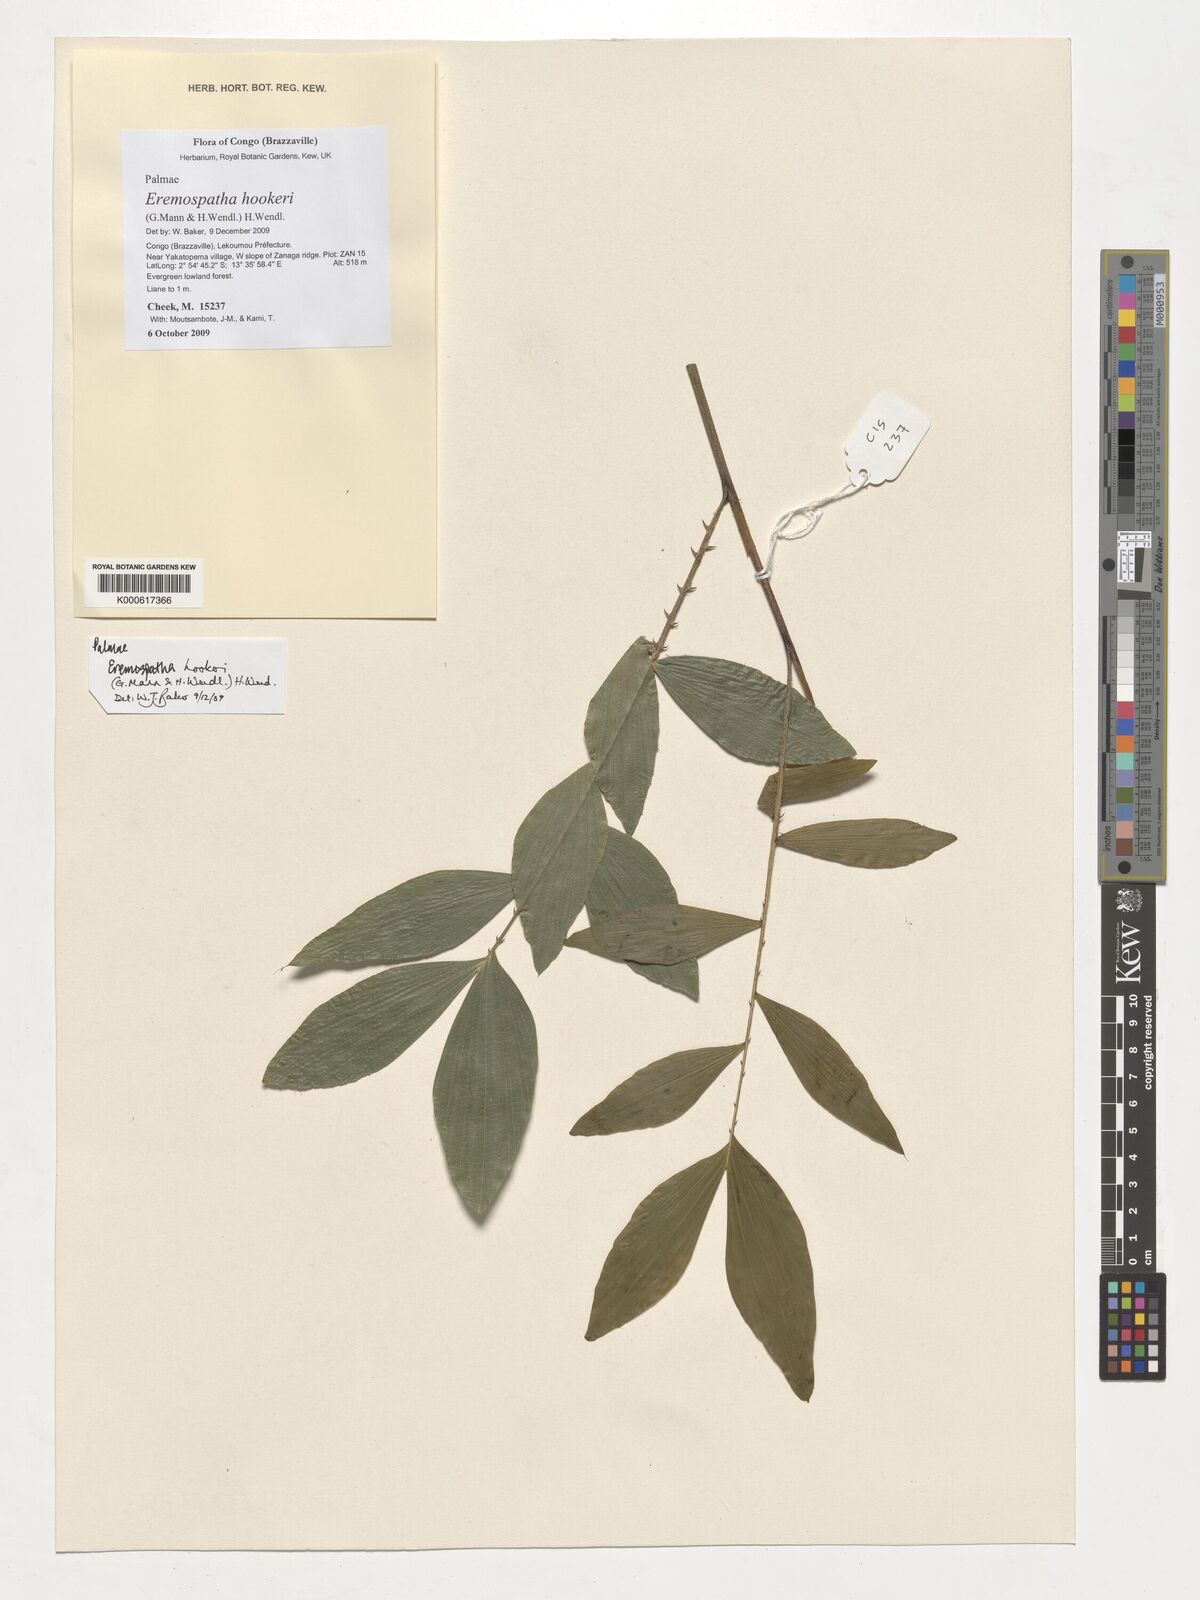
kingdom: Plantae
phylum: Tracheophyta
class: Liliopsida
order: Arecales
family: Arecaceae
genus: Eremospatha
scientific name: Eremospatha hookeri
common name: Rattan
